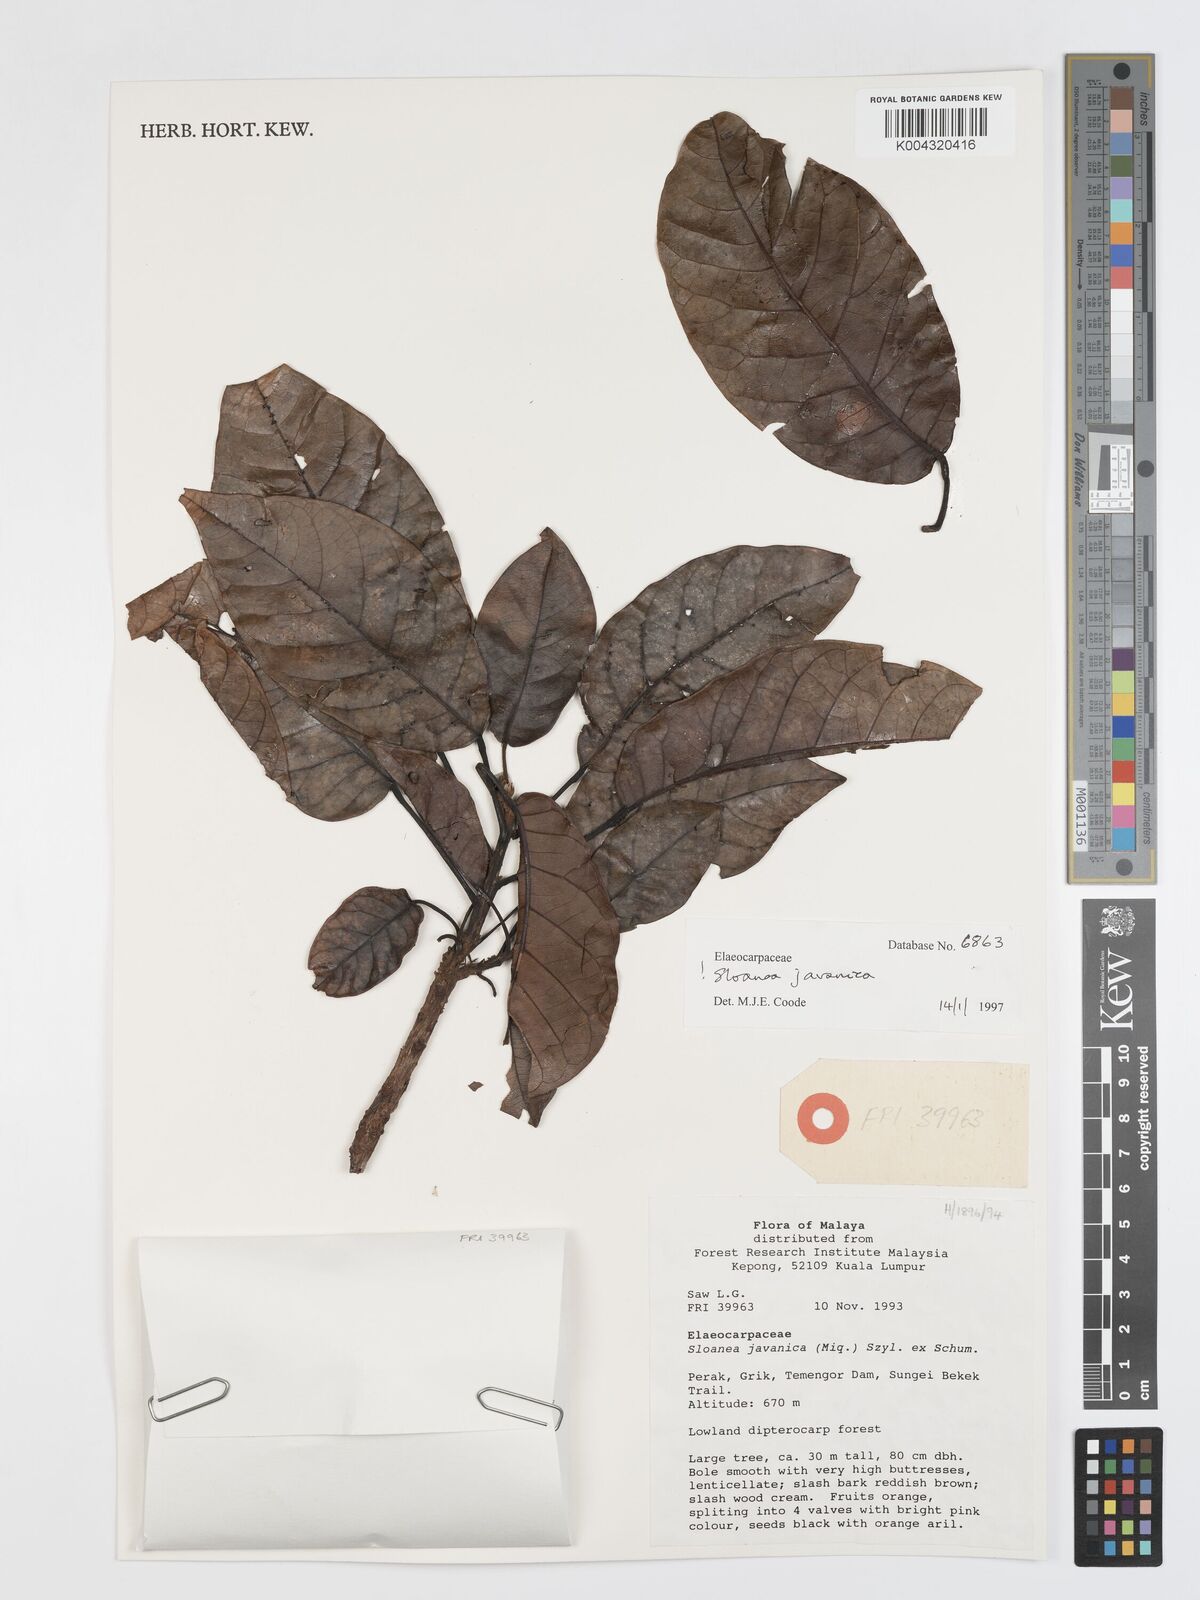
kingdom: Plantae
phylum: Tracheophyta
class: Magnoliopsida
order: Oxalidales
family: Elaeocarpaceae
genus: Sloanea
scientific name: Sloanea javanica
